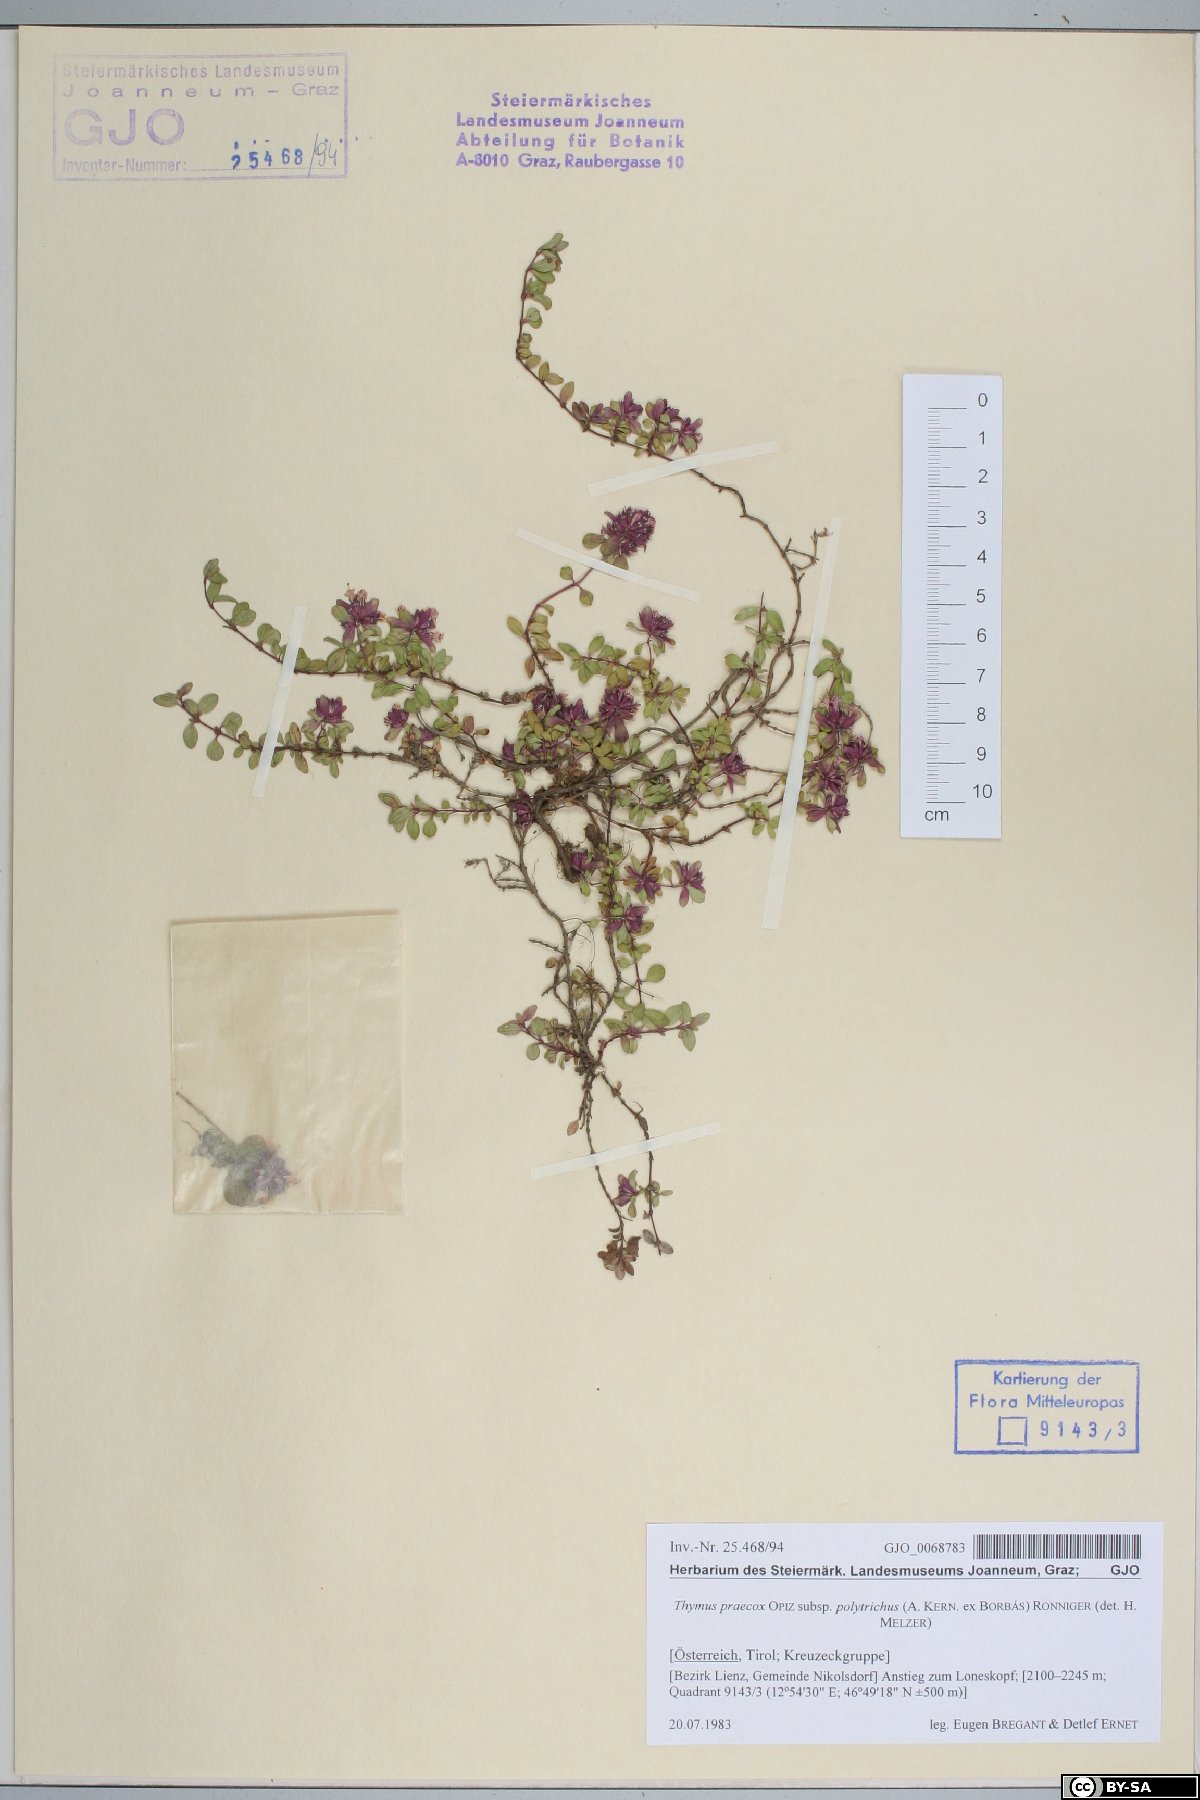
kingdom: Plantae
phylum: Tracheophyta
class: Magnoliopsida
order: Lamiales
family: Lamiaceae
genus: Thymus
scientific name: Thymus praecox
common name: Wild thyme
